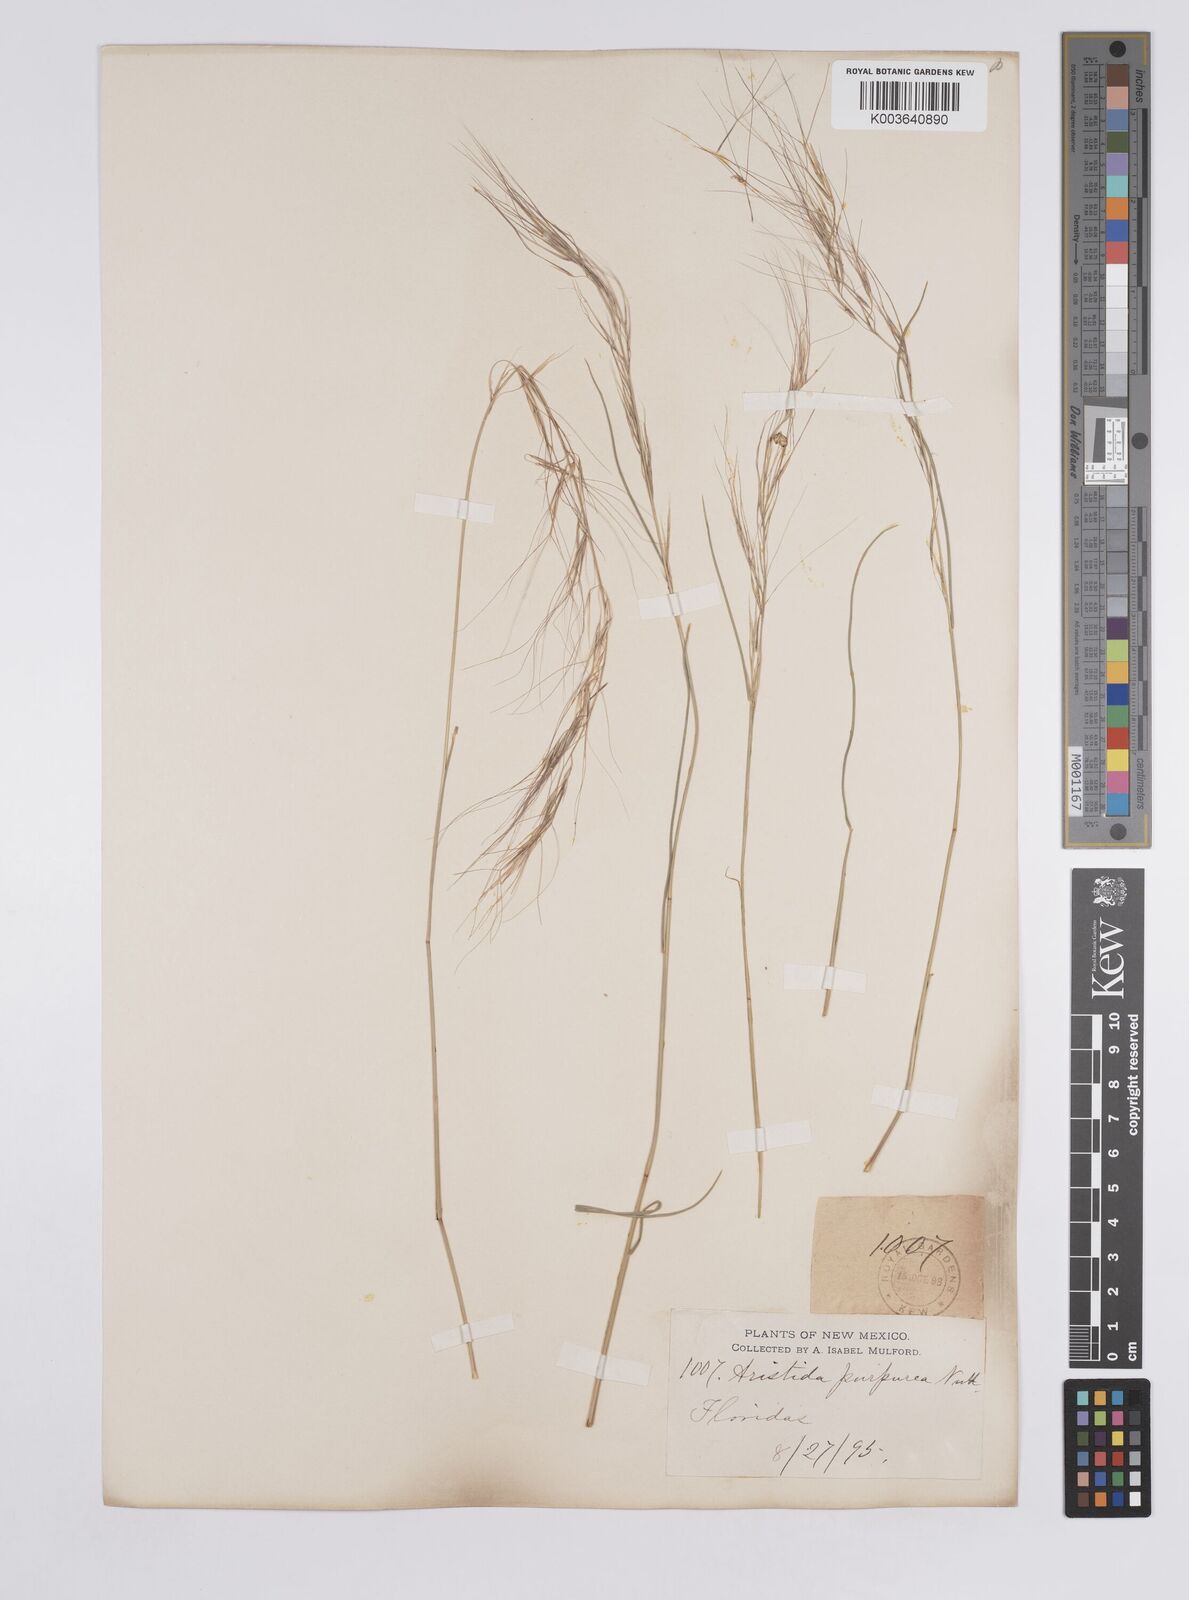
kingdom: Plantae
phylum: Tracheophyta
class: Liliopsida
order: Poales
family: Poaceae
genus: Aristida
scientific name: Aristida purpurea
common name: Purple threeawn
